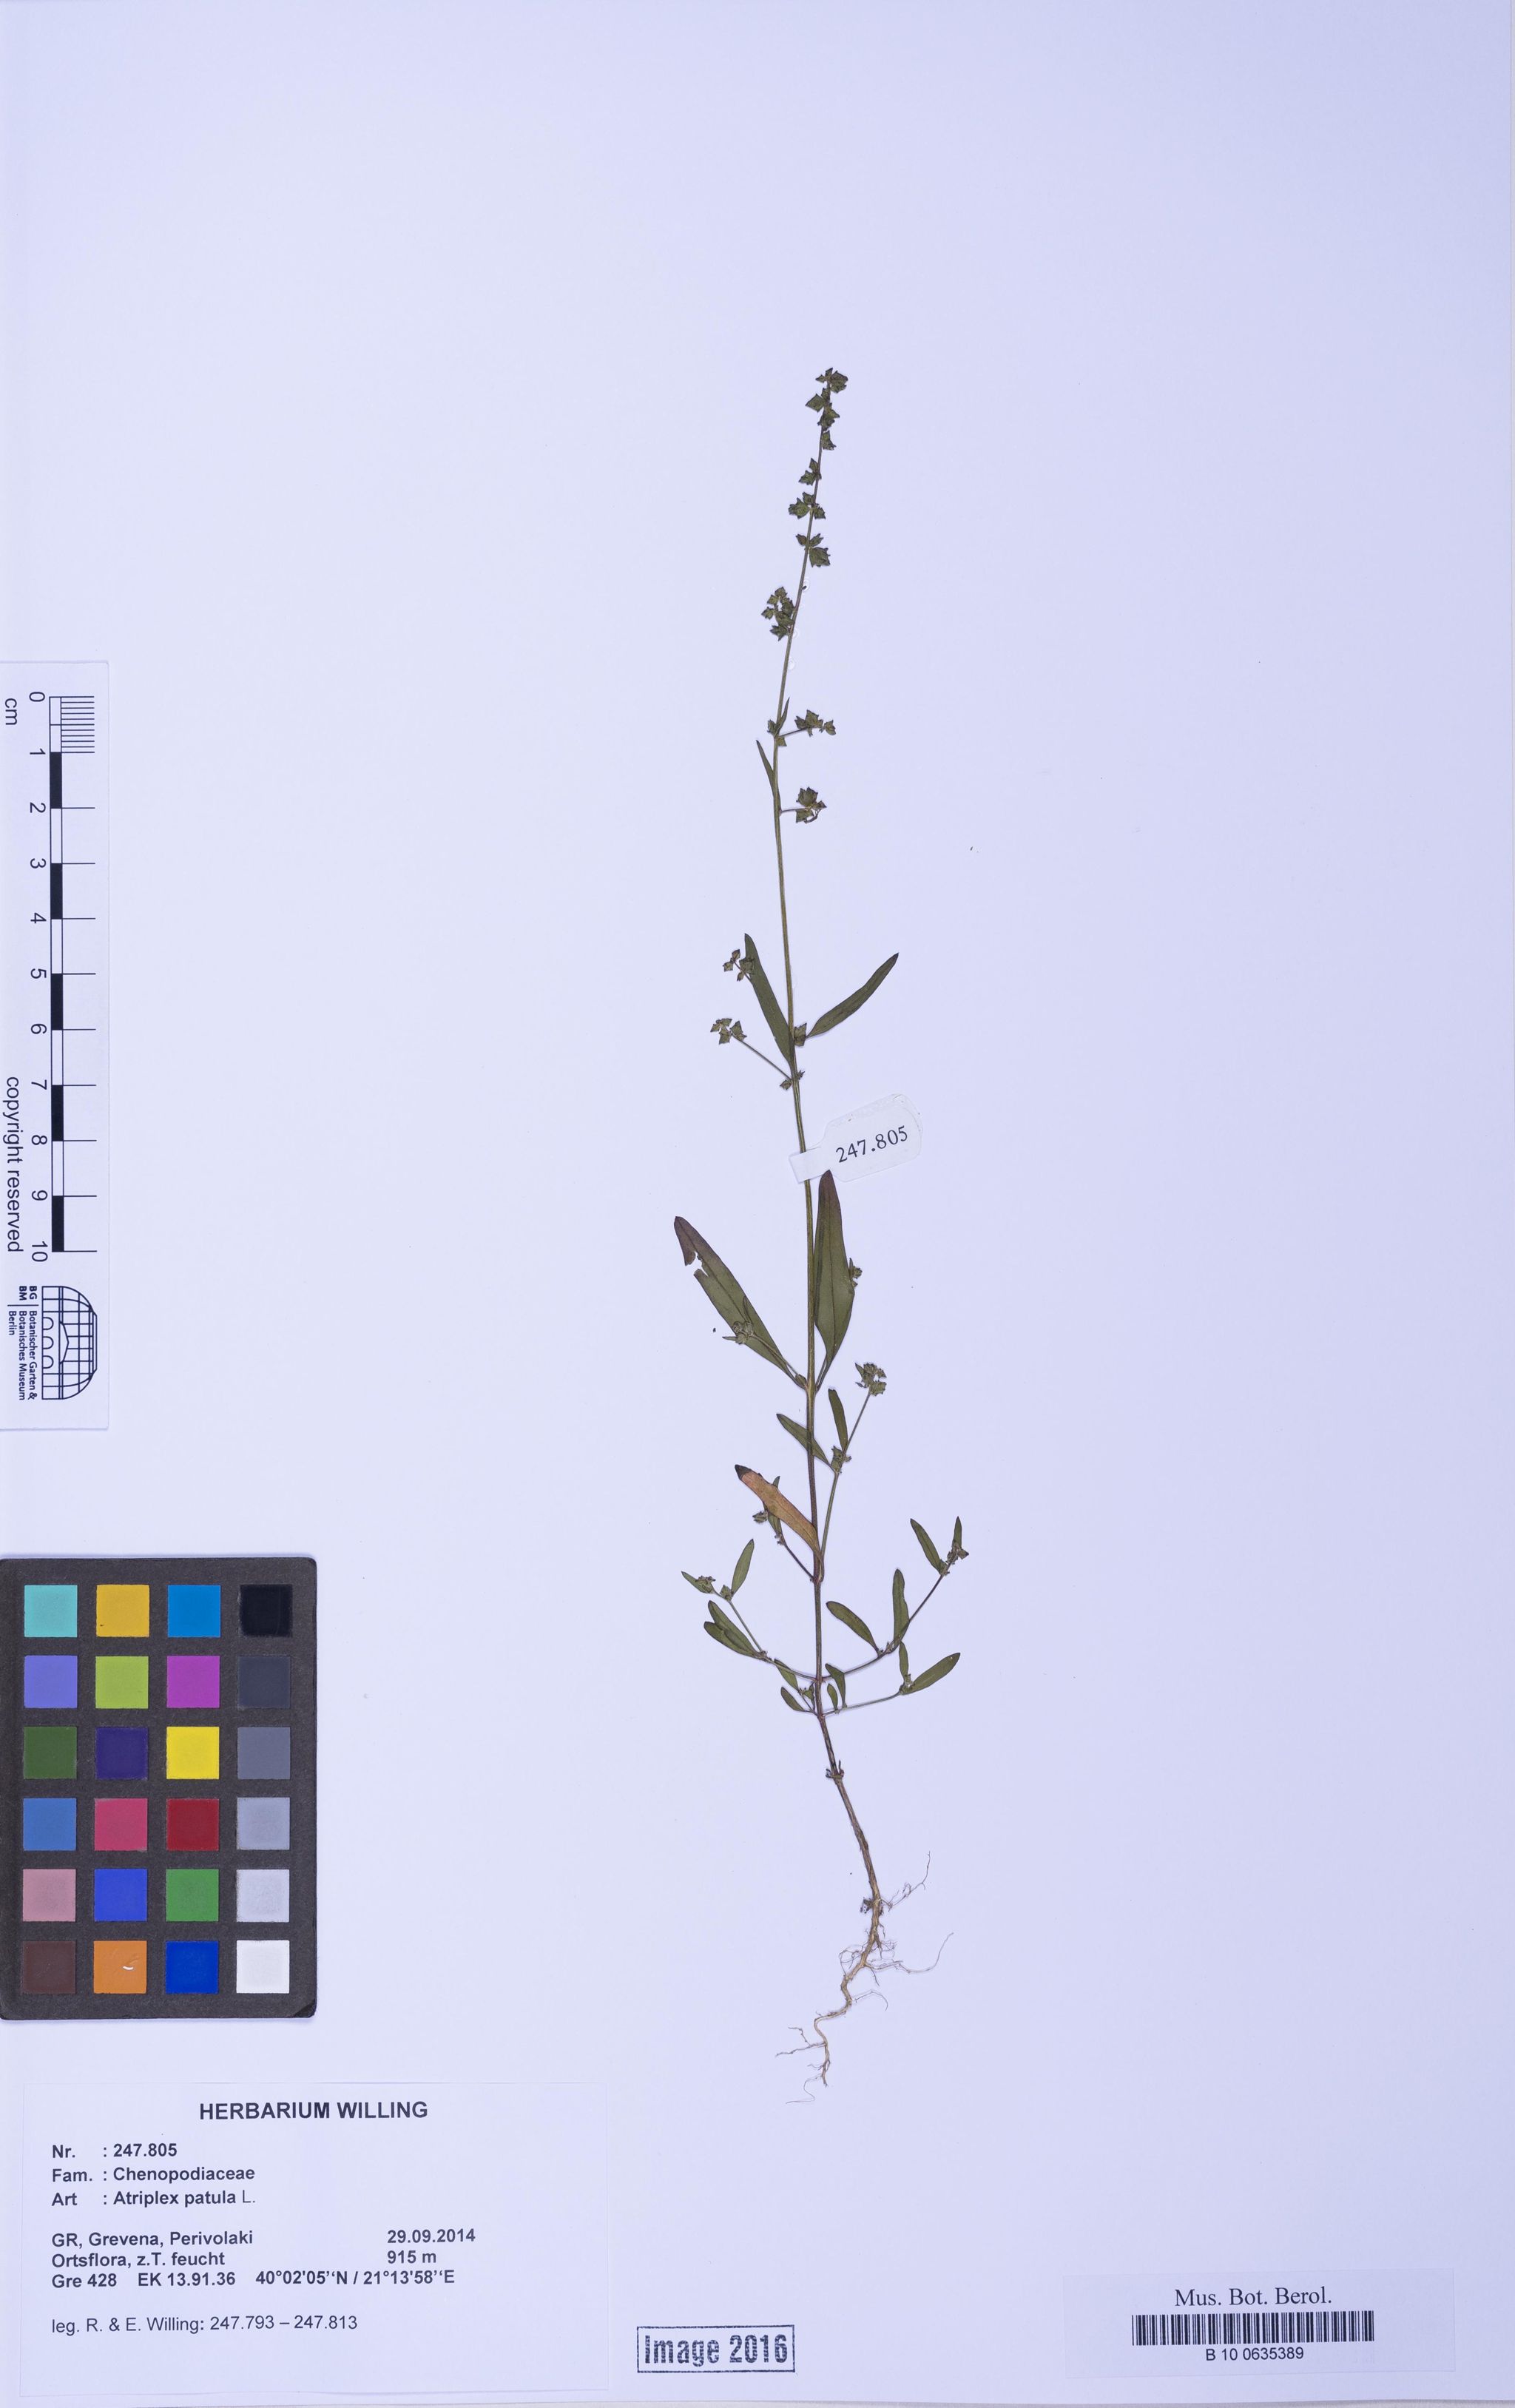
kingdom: Plantae
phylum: Tracheophyta
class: Magnoliopsida
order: Caryophyllales
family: Amaranthaceae
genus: Atriplex
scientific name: Atriplex patula
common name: Common orache
